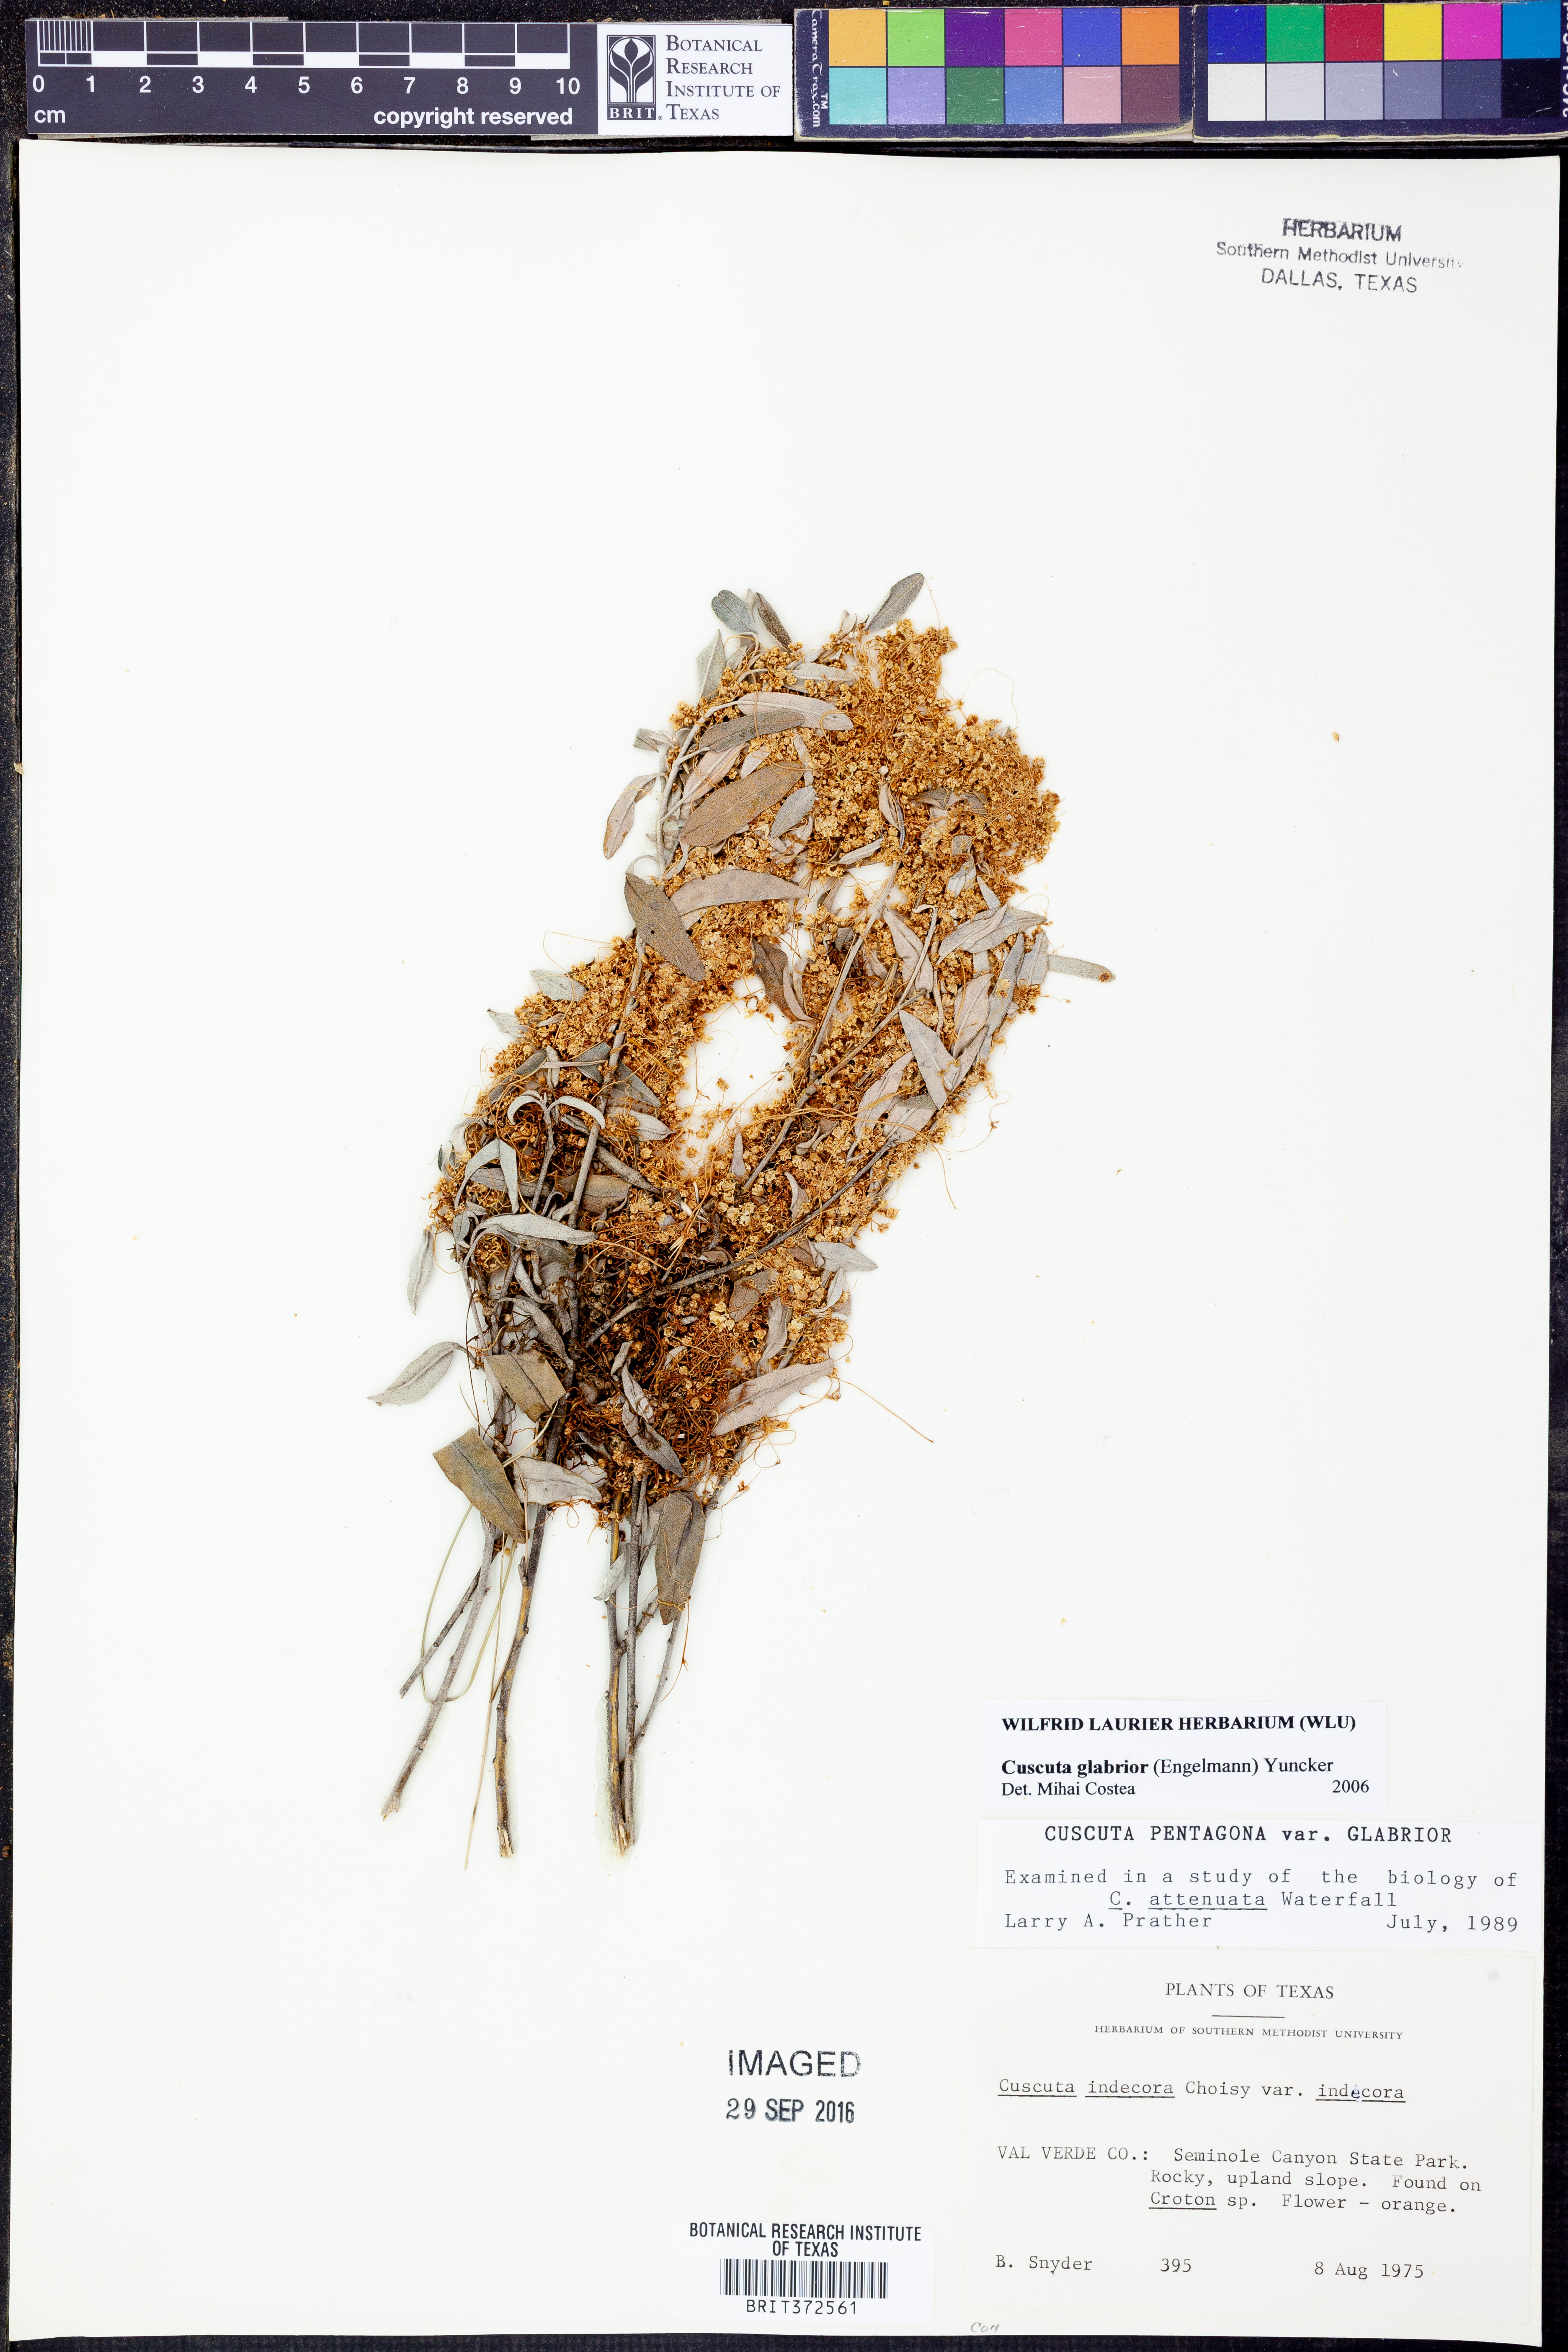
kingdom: Plantae
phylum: Tracheophyta
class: Magnoliopsida
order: Solanales
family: Convolvulaceae
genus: Cuscuta
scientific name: Cuscuta glabrior
